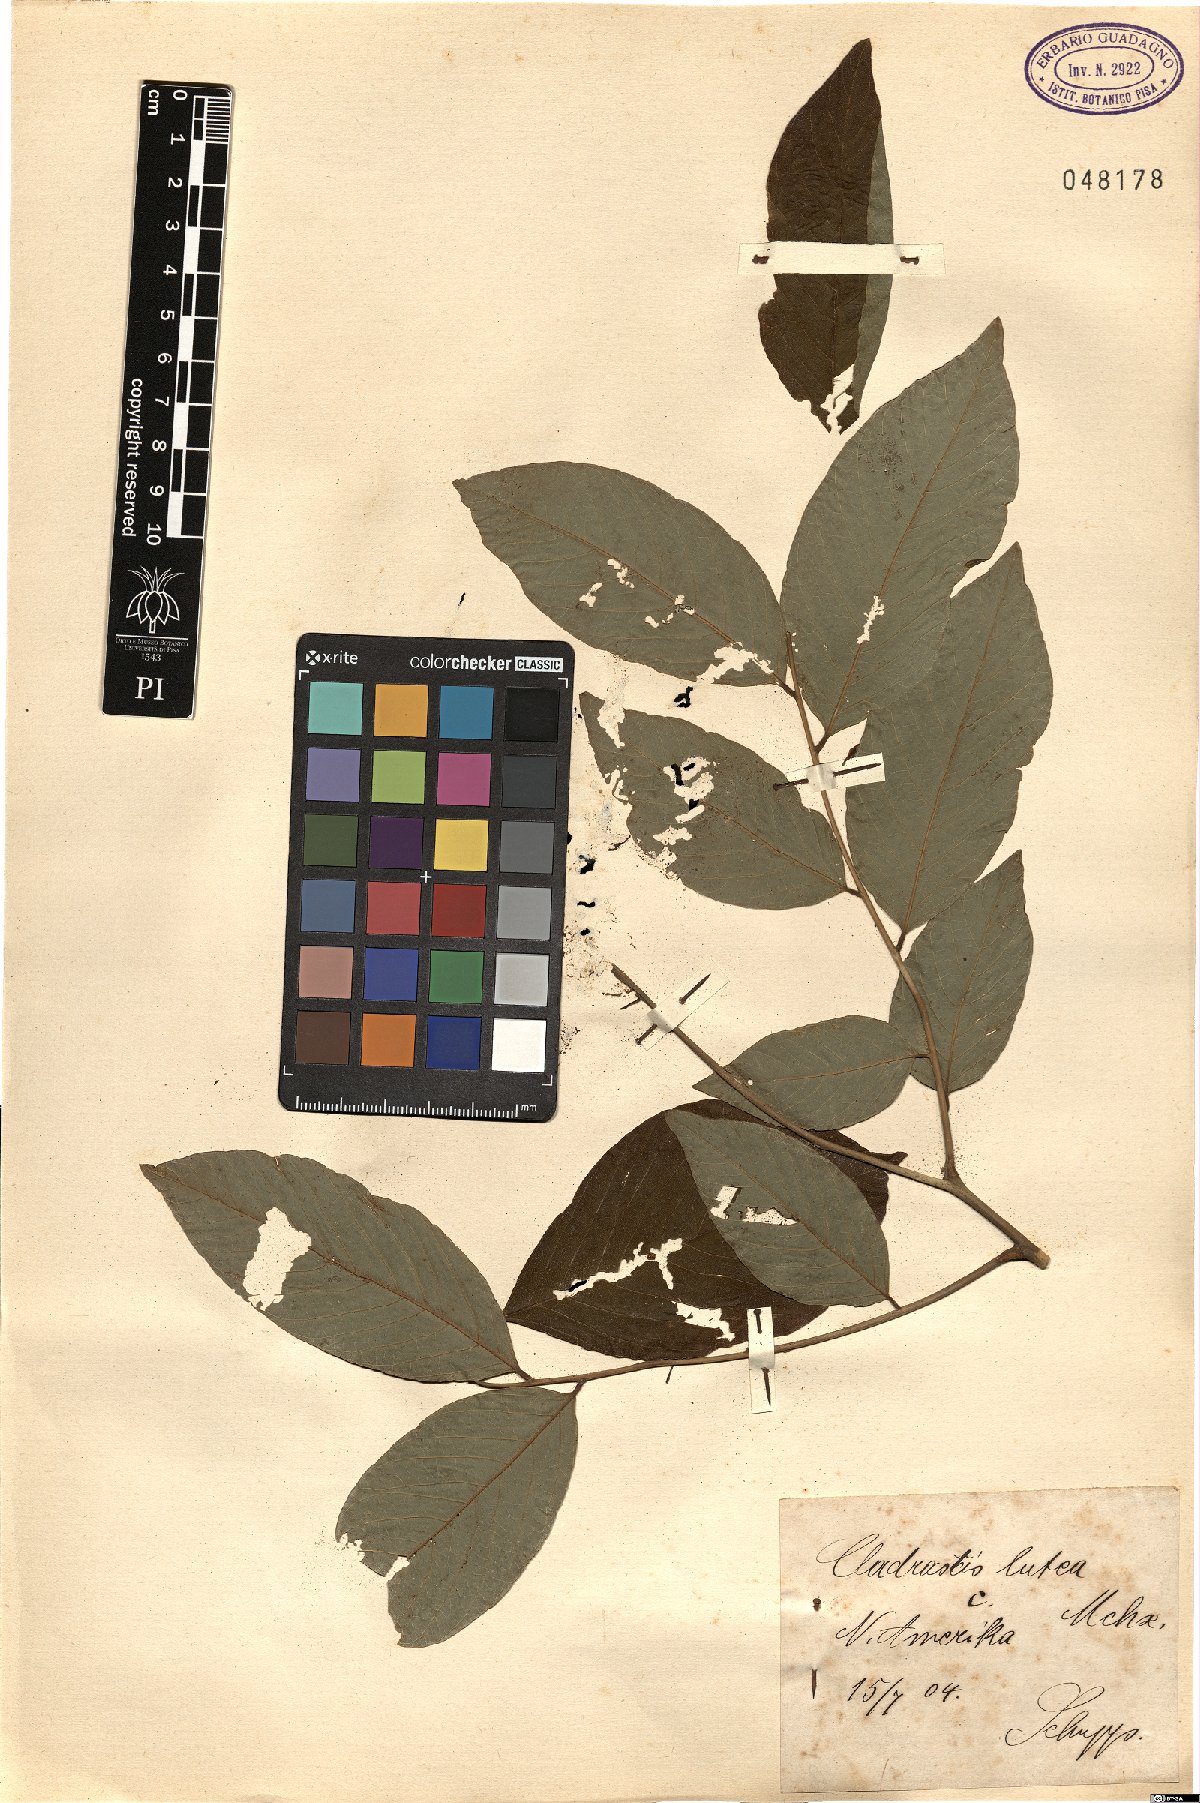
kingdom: Plantae
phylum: Tracheophyta
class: Magnoliopsida
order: Fabales
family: Fabaceae
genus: Cladrastis
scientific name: Cladrastis kentukea
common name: Kentucky yellow-wood
